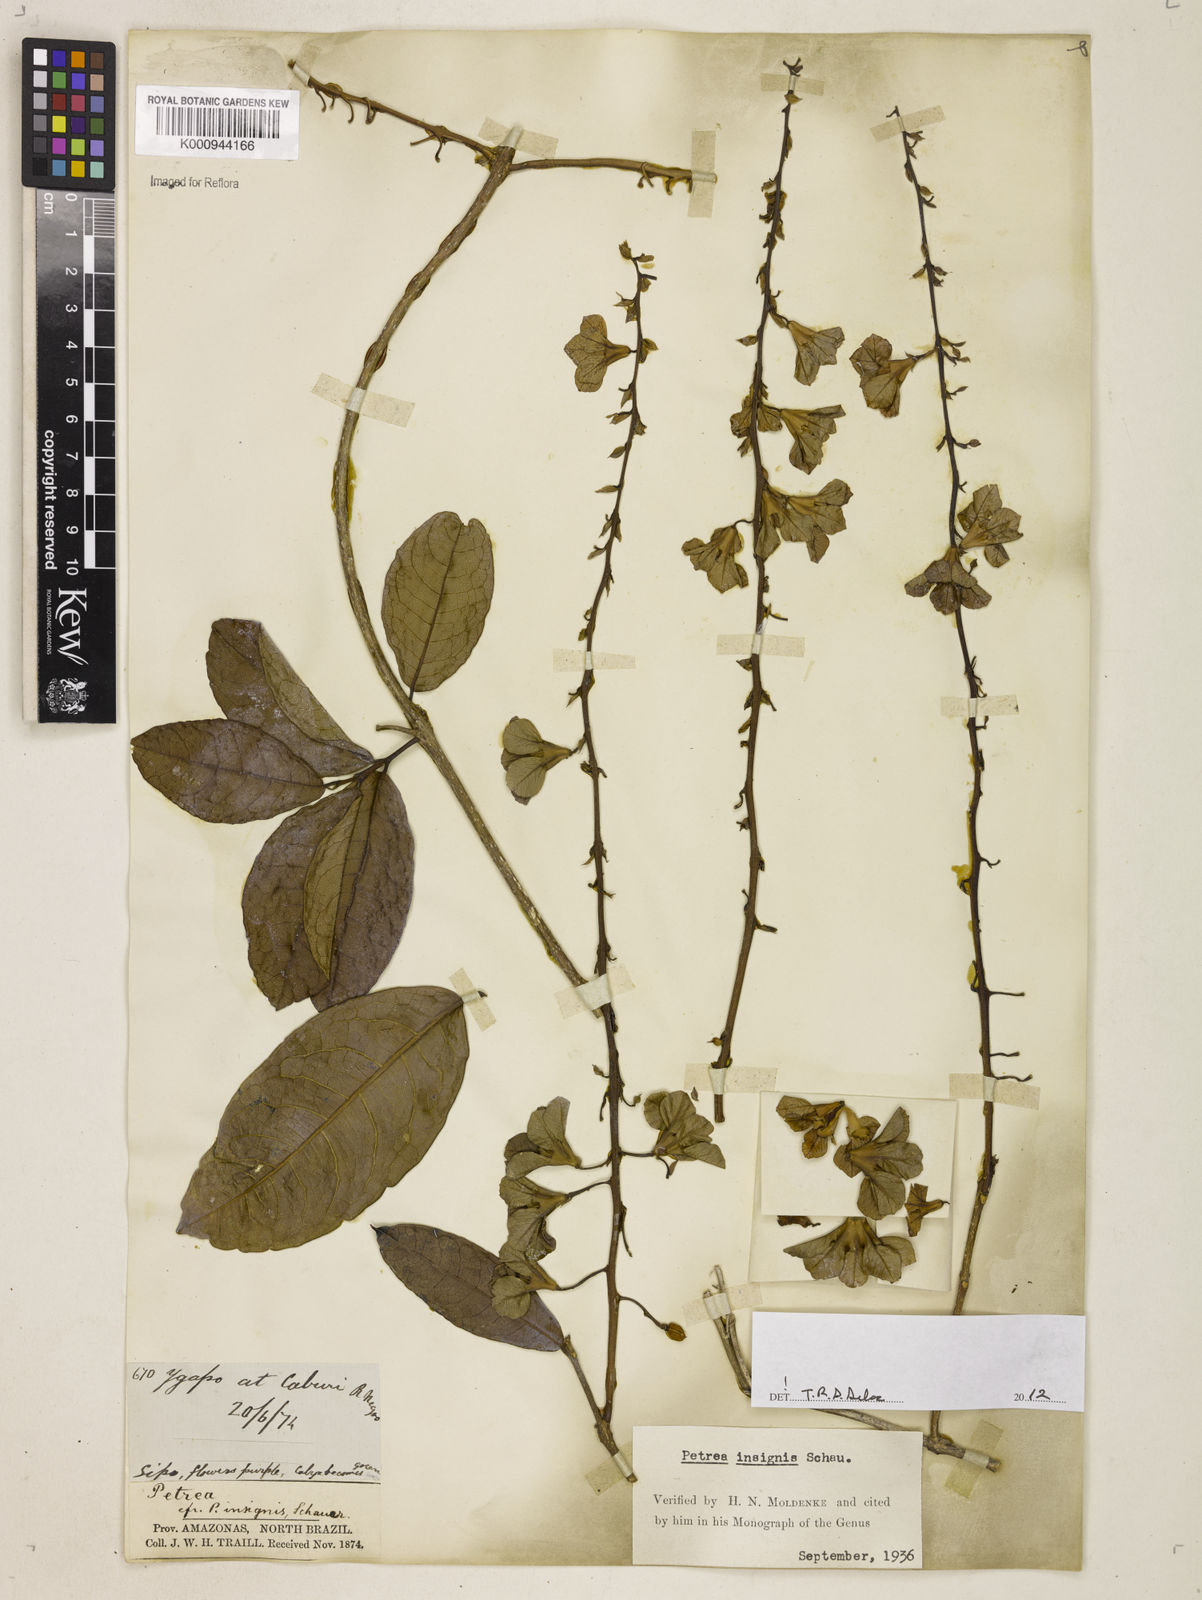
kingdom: Plantae
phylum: Tracheophyta
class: Magnoliopsida
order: Lamiales
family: Verbenaceae
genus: Petrea
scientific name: Petrea insignis
